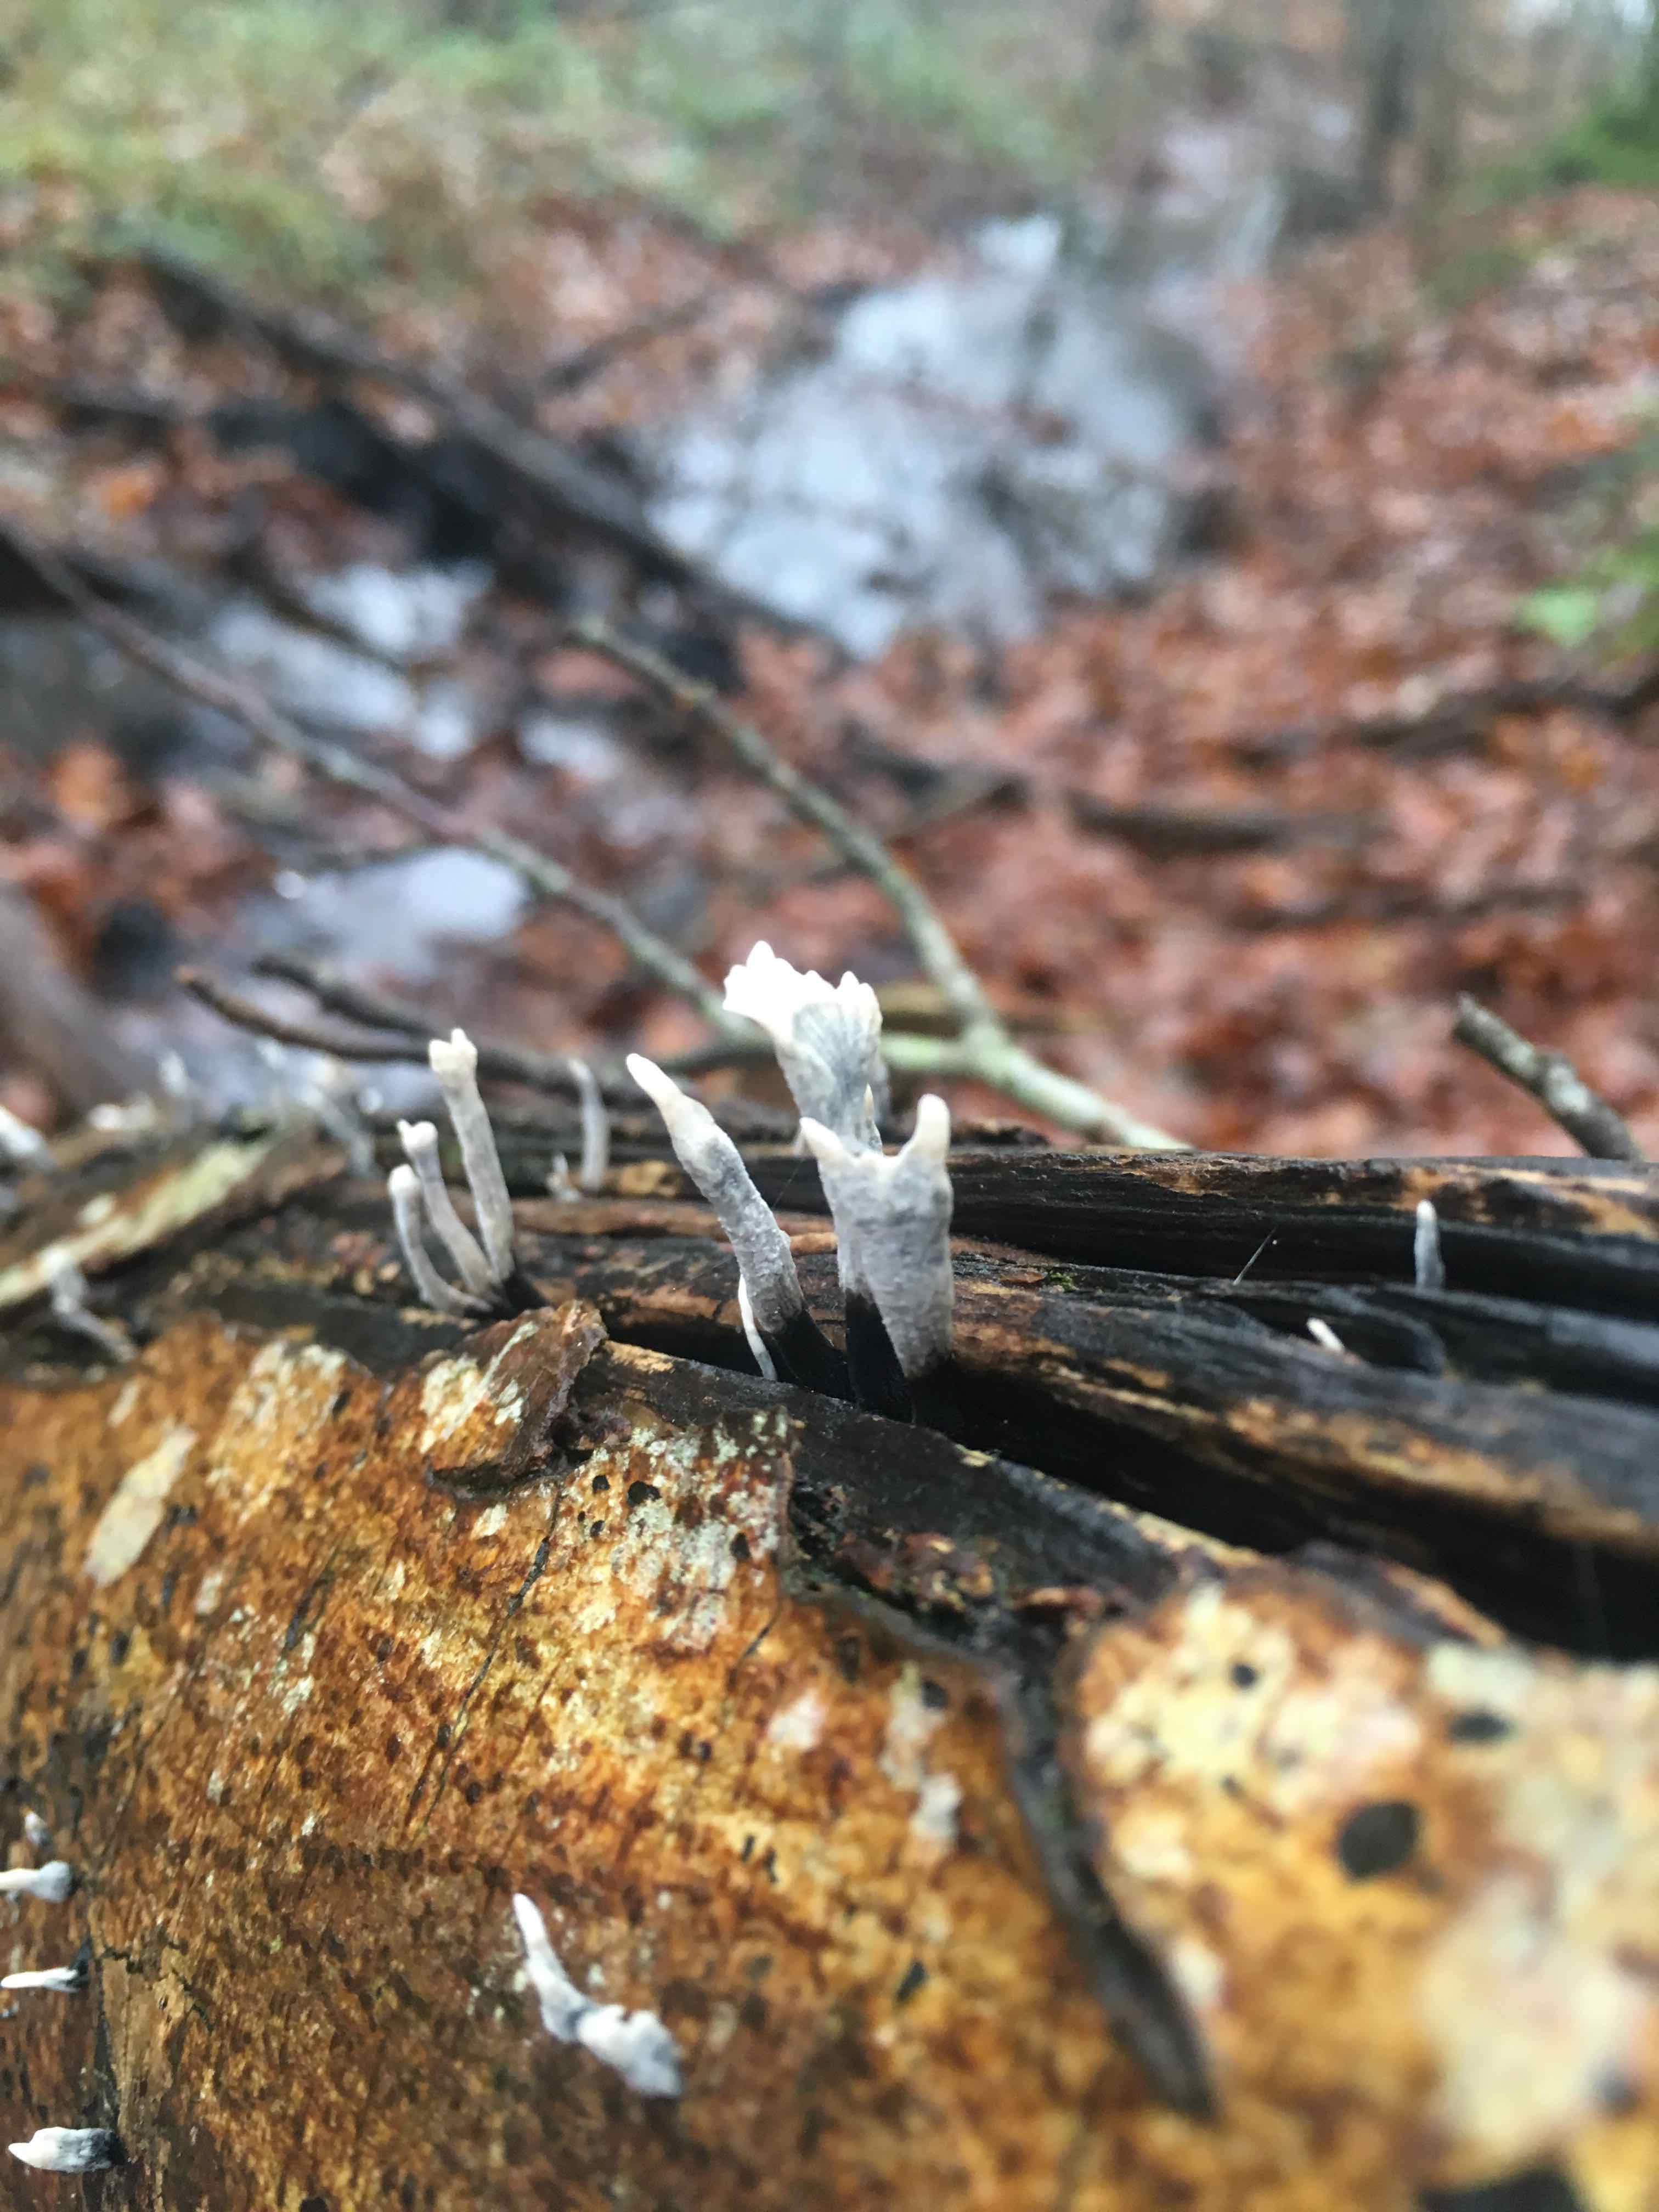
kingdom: Fungi
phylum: Ascomycota
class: Sordariomycetes
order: Xylariales
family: Xylariaceae
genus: Xylaria
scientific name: Xylaria hypoxylon
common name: grenet stødsvamp
